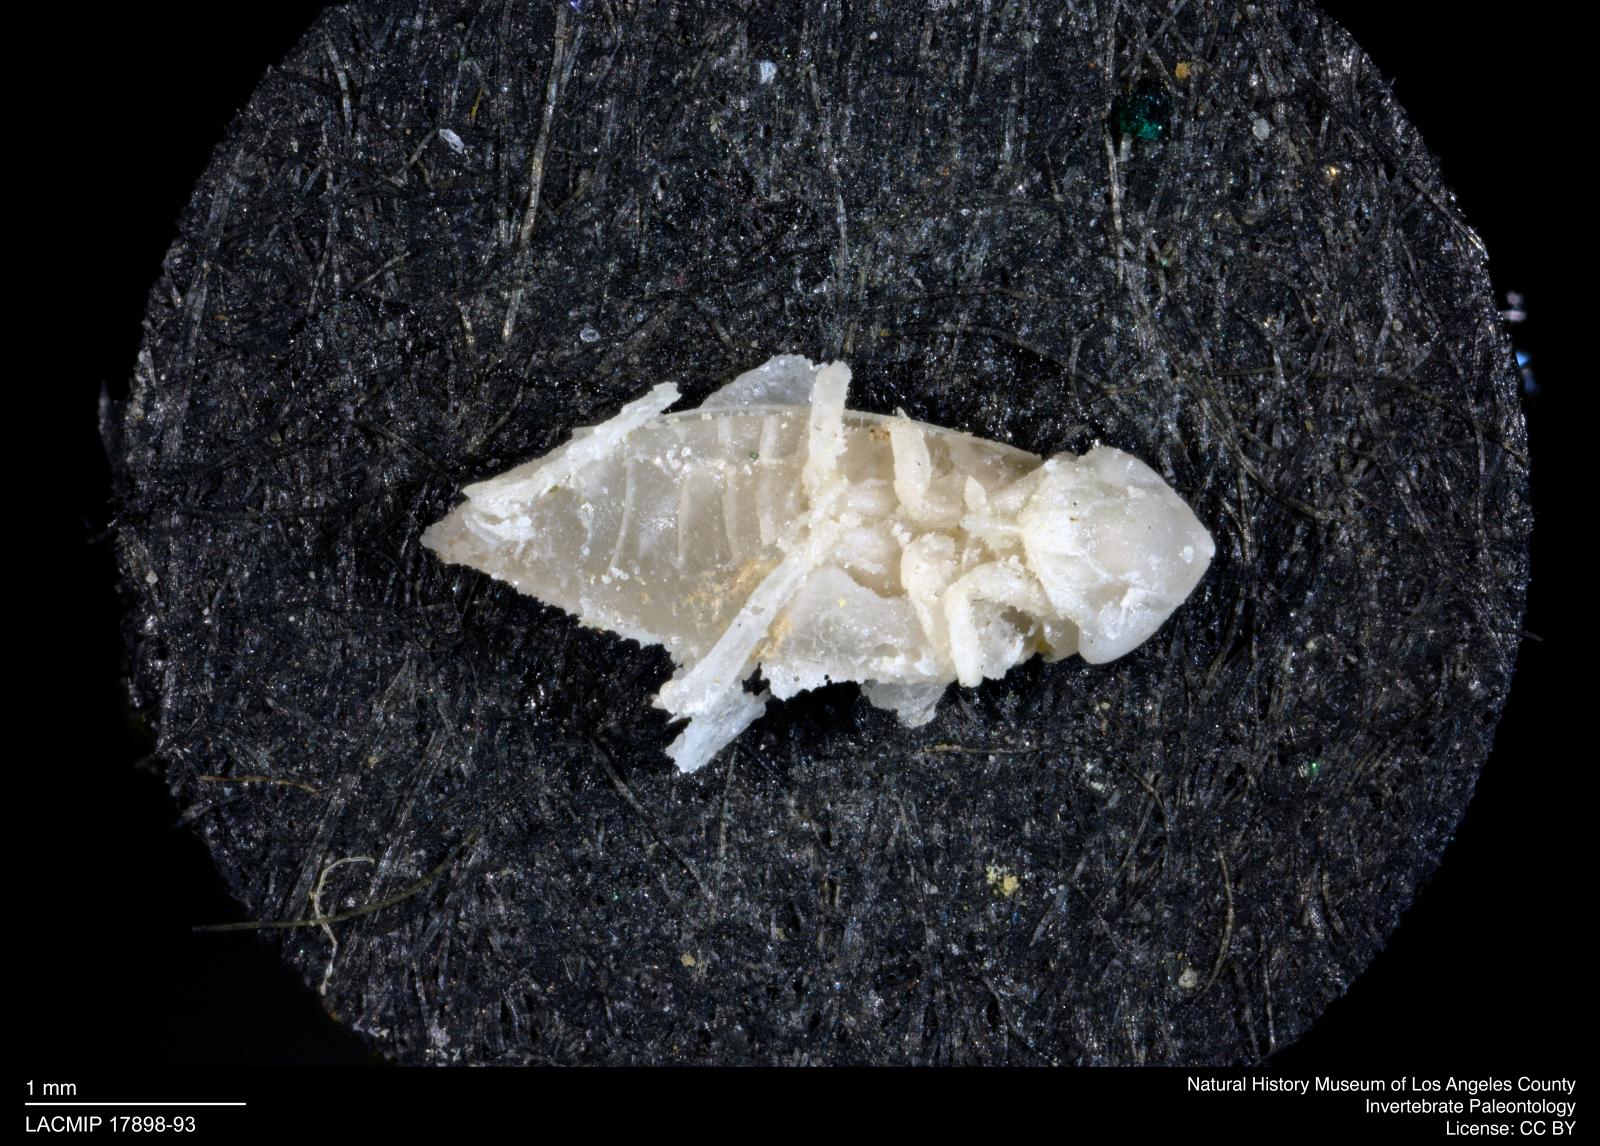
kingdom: Animalia
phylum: Arthropoda
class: Insecta
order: Hemiptera
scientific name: Hemiptera
